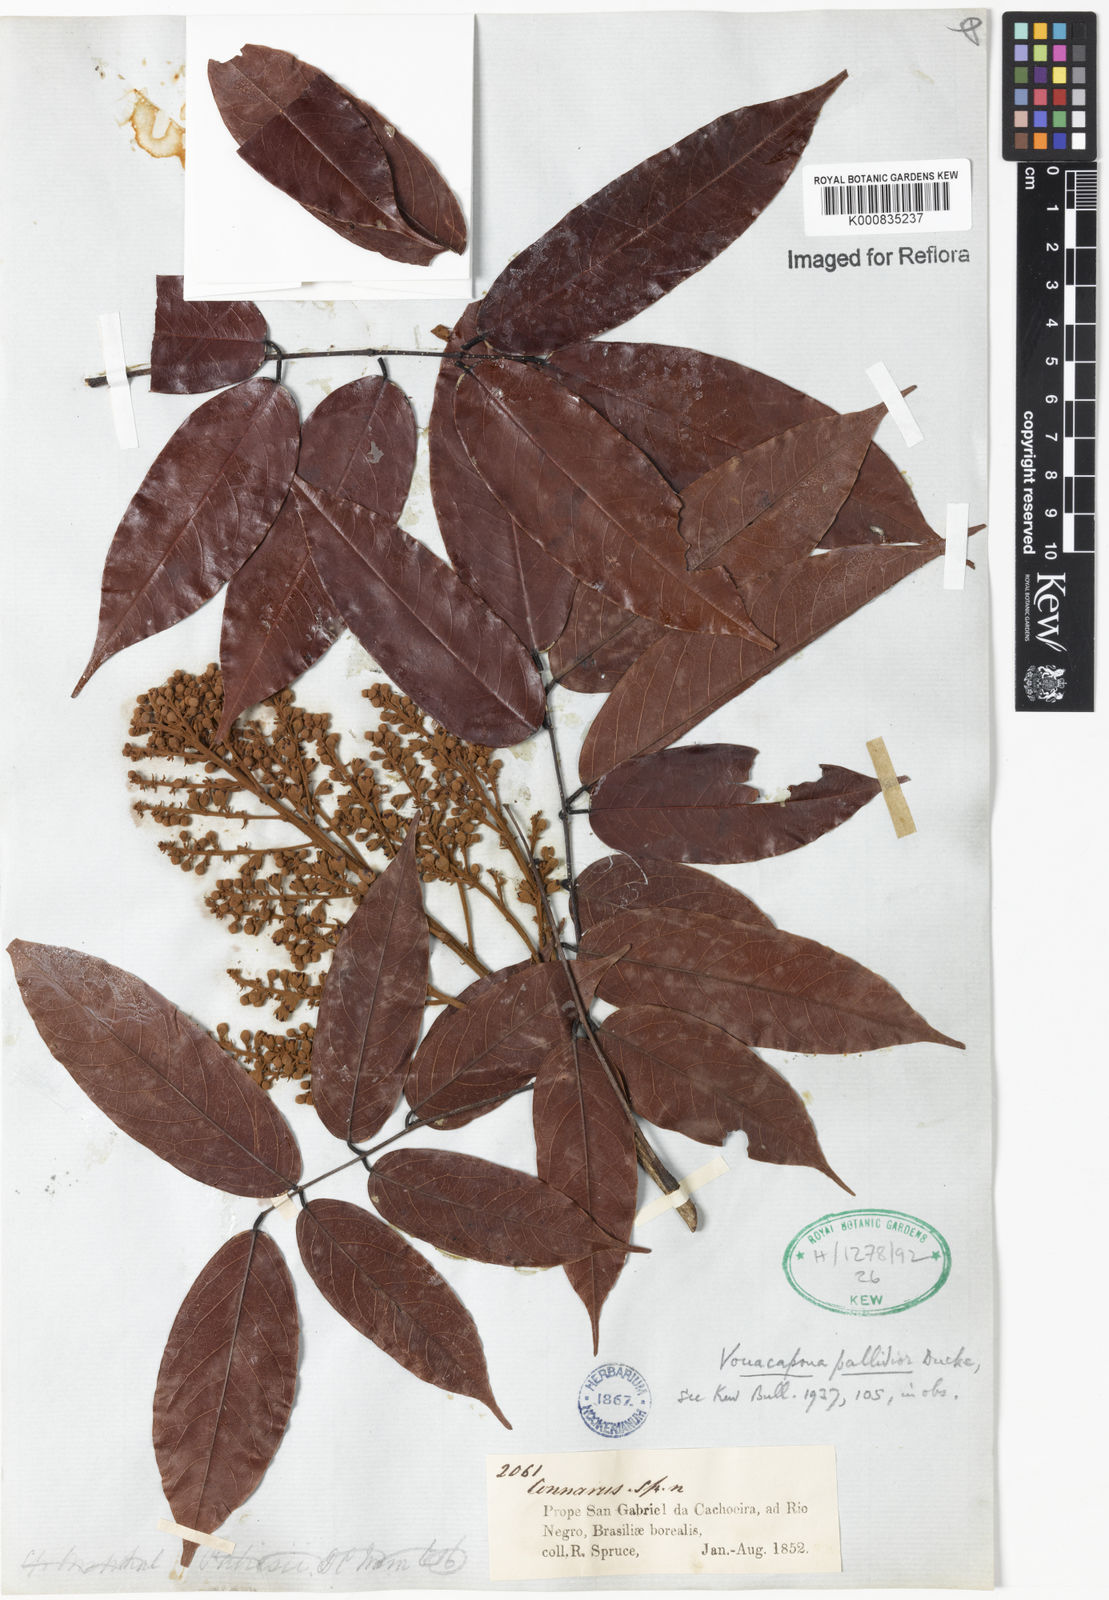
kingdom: Plantae
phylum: Tracheophyta
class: Magnoliopsida
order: Fabales
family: Fabaceae
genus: Vouacapoua
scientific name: Vouacapoua pallidior
